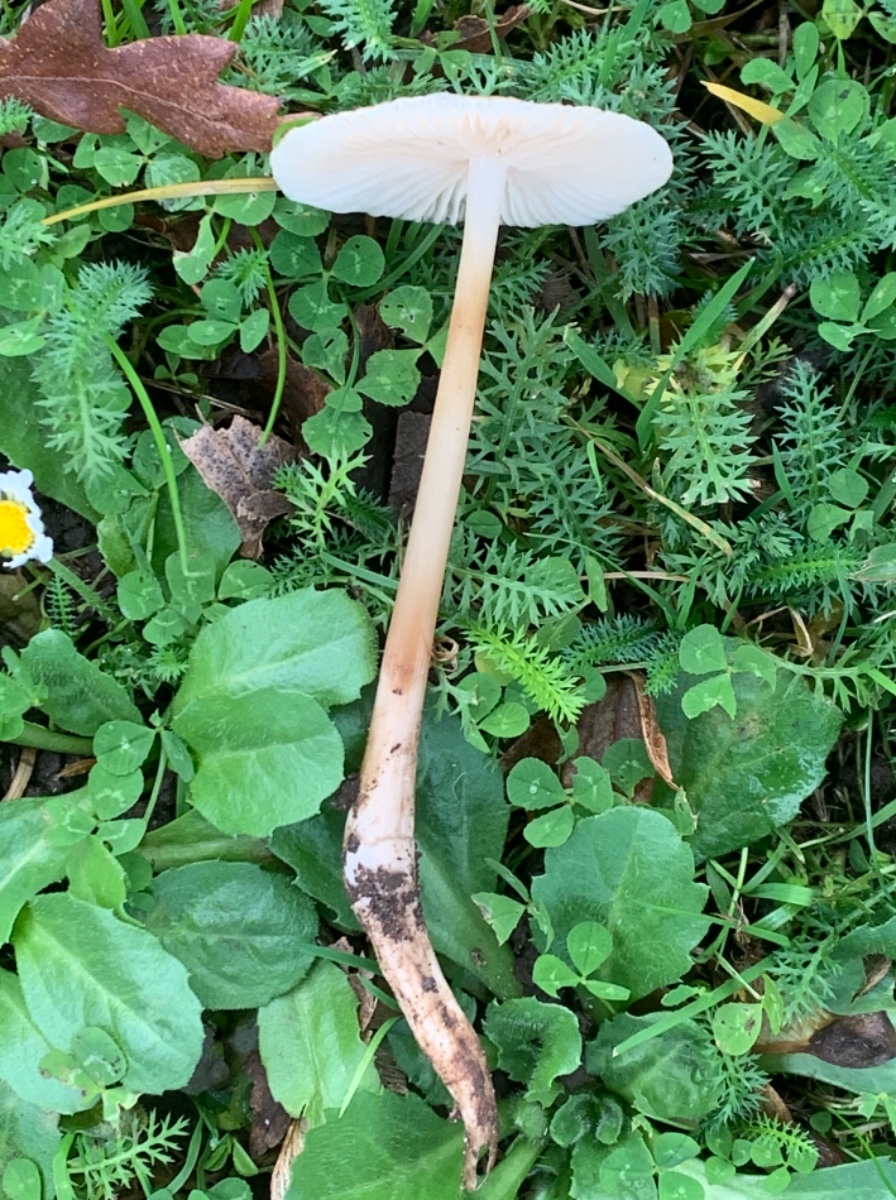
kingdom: Fungi
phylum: Basidiomycota
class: Agaricomycetes
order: Agaricales
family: Physalacriaceae
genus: Hymenopellis
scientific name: Hymenopellis radicata
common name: almindelig pælerodshat
